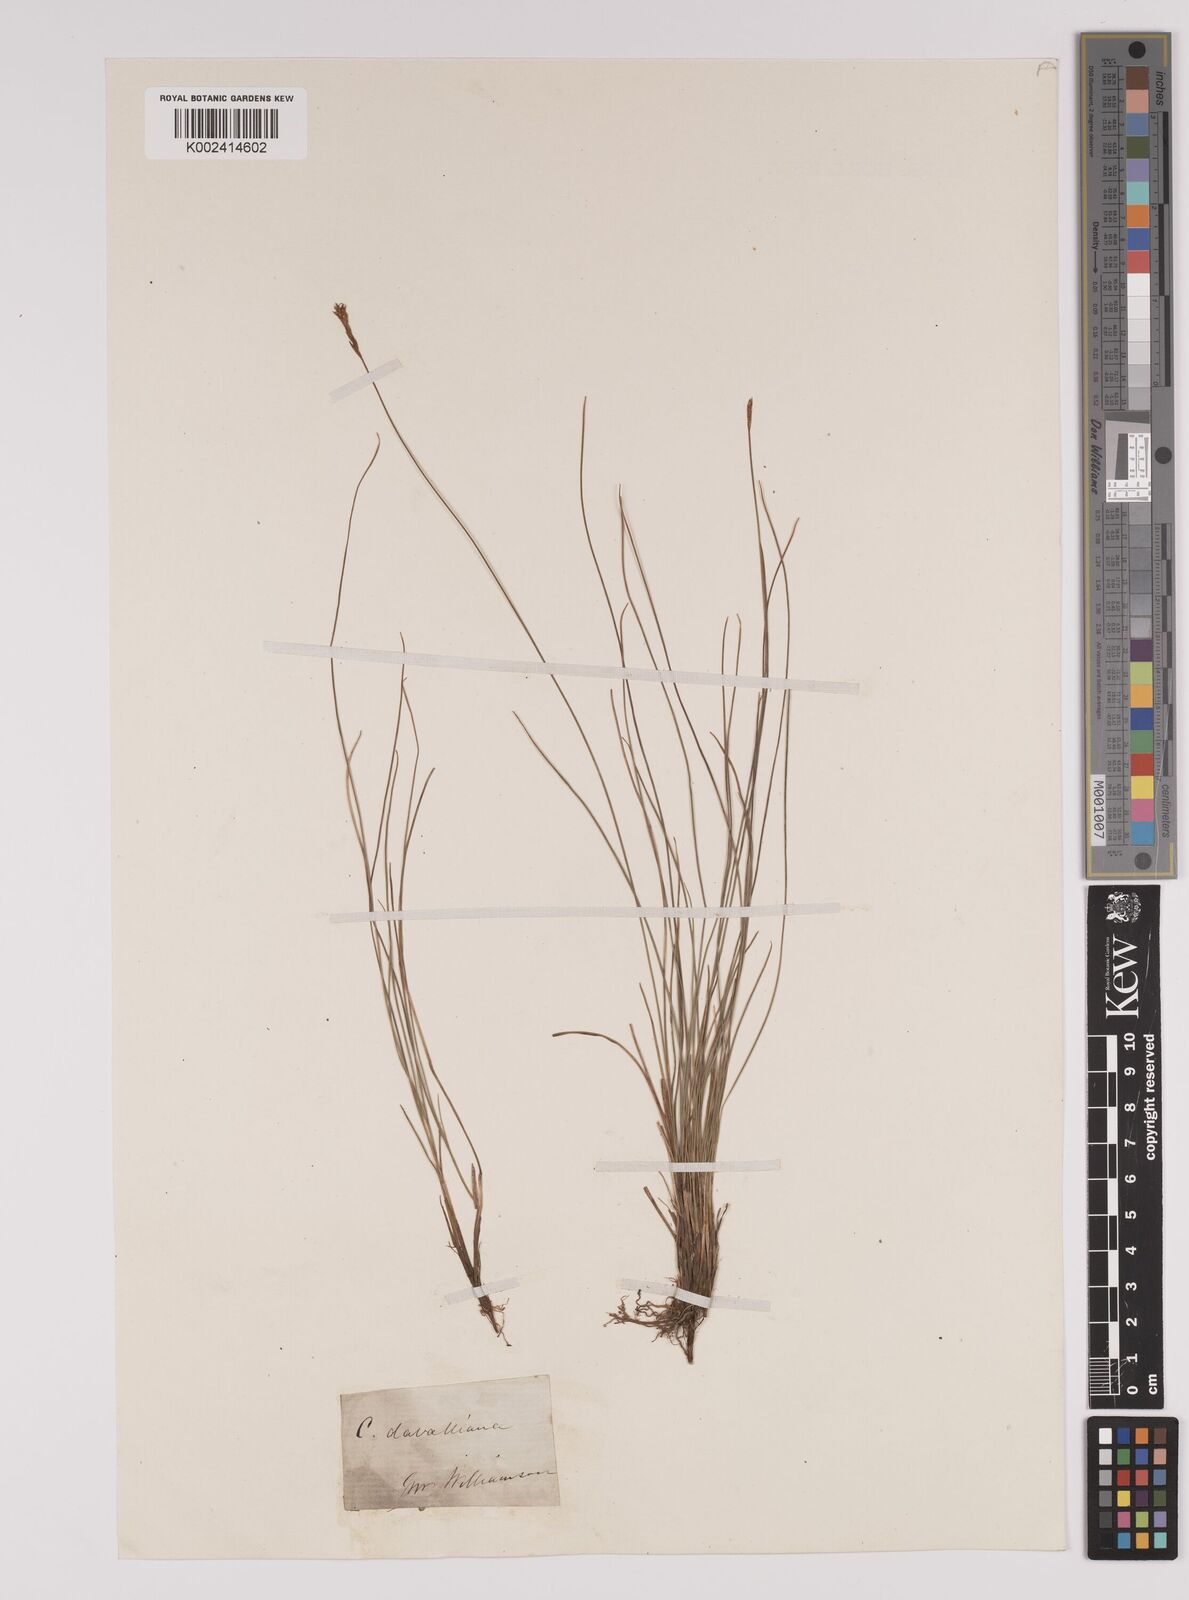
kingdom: Plantae
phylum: Tracheophyta
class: Liliopsida
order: Poales
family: Cyperaceae
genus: Carex
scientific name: Carex davalliana
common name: Davall's sedge
